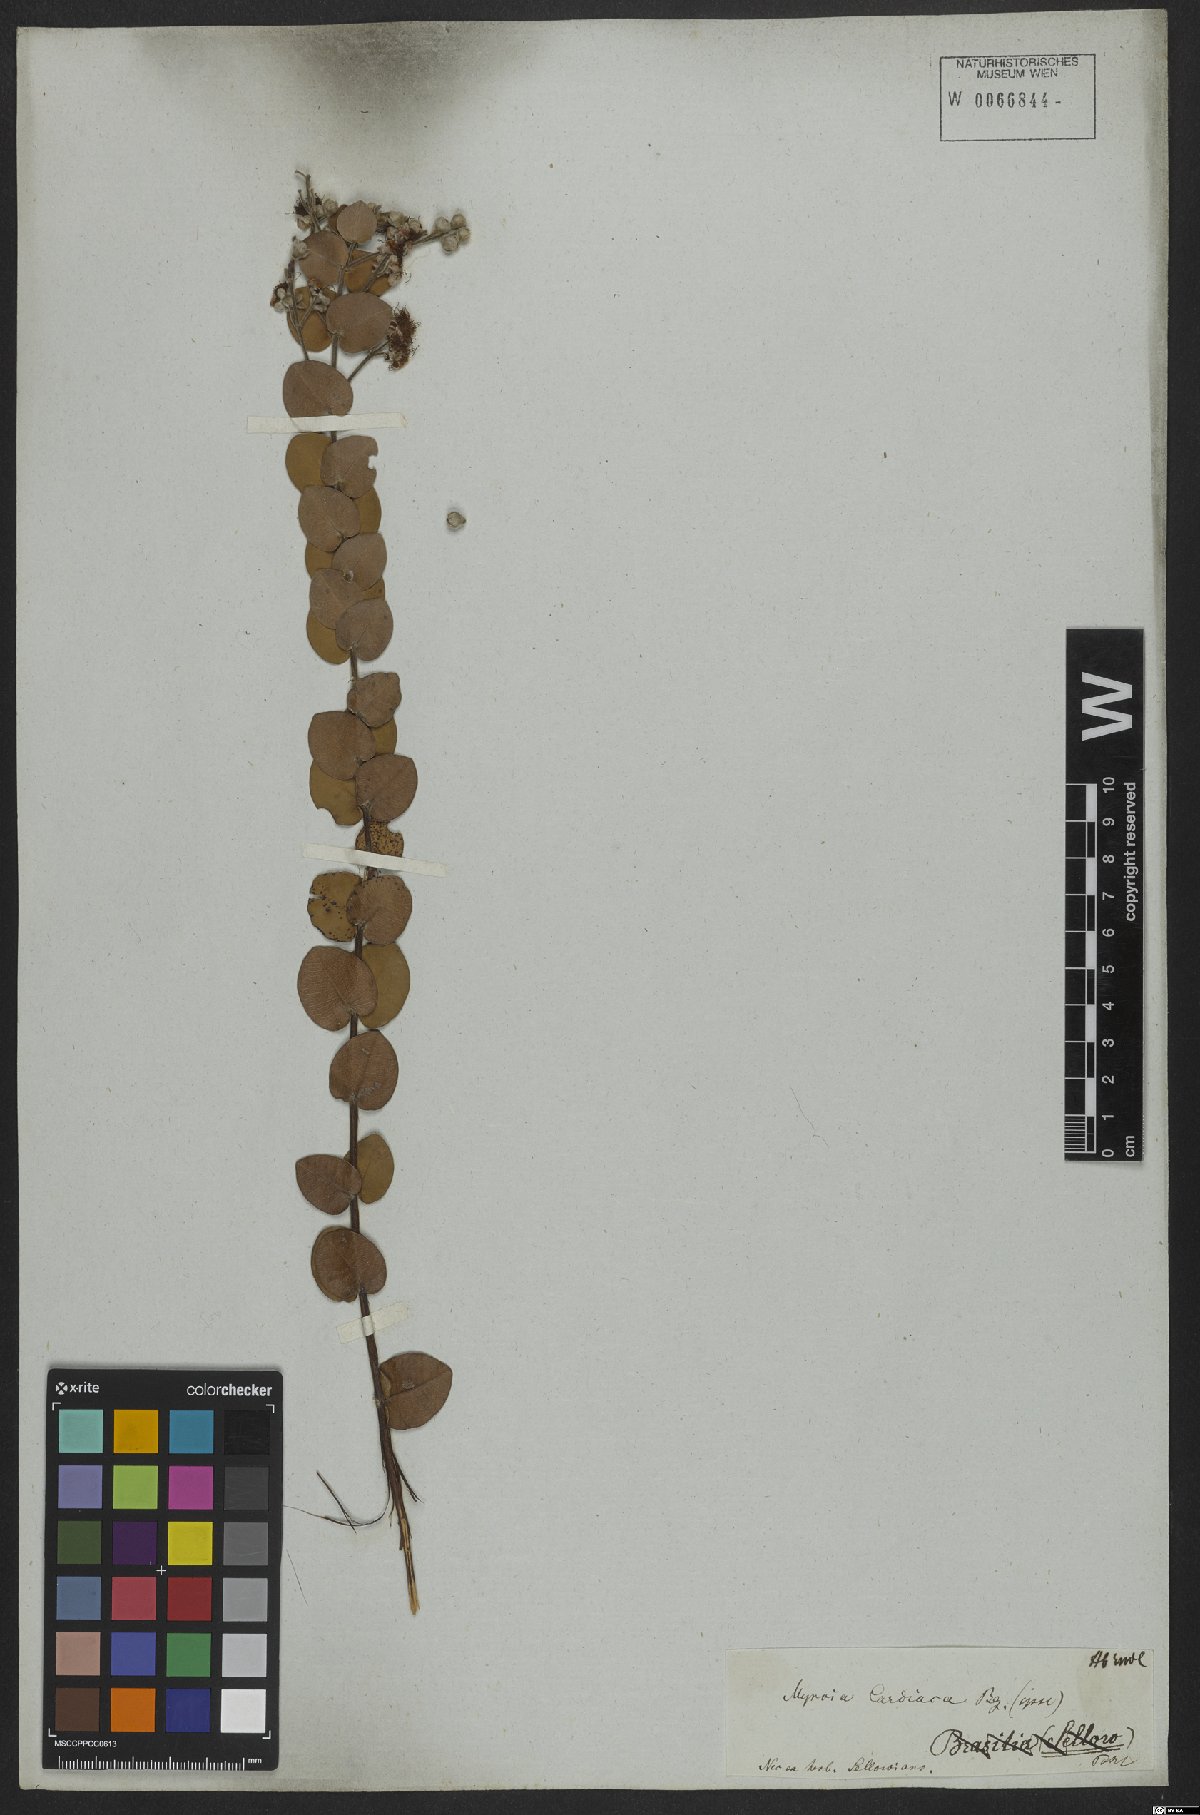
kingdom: Plantae
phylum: Tracheophyta
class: Magnoliopsida
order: Myrtales
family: Myrtaceae
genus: Myrcia
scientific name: Myrcia cardiaca
